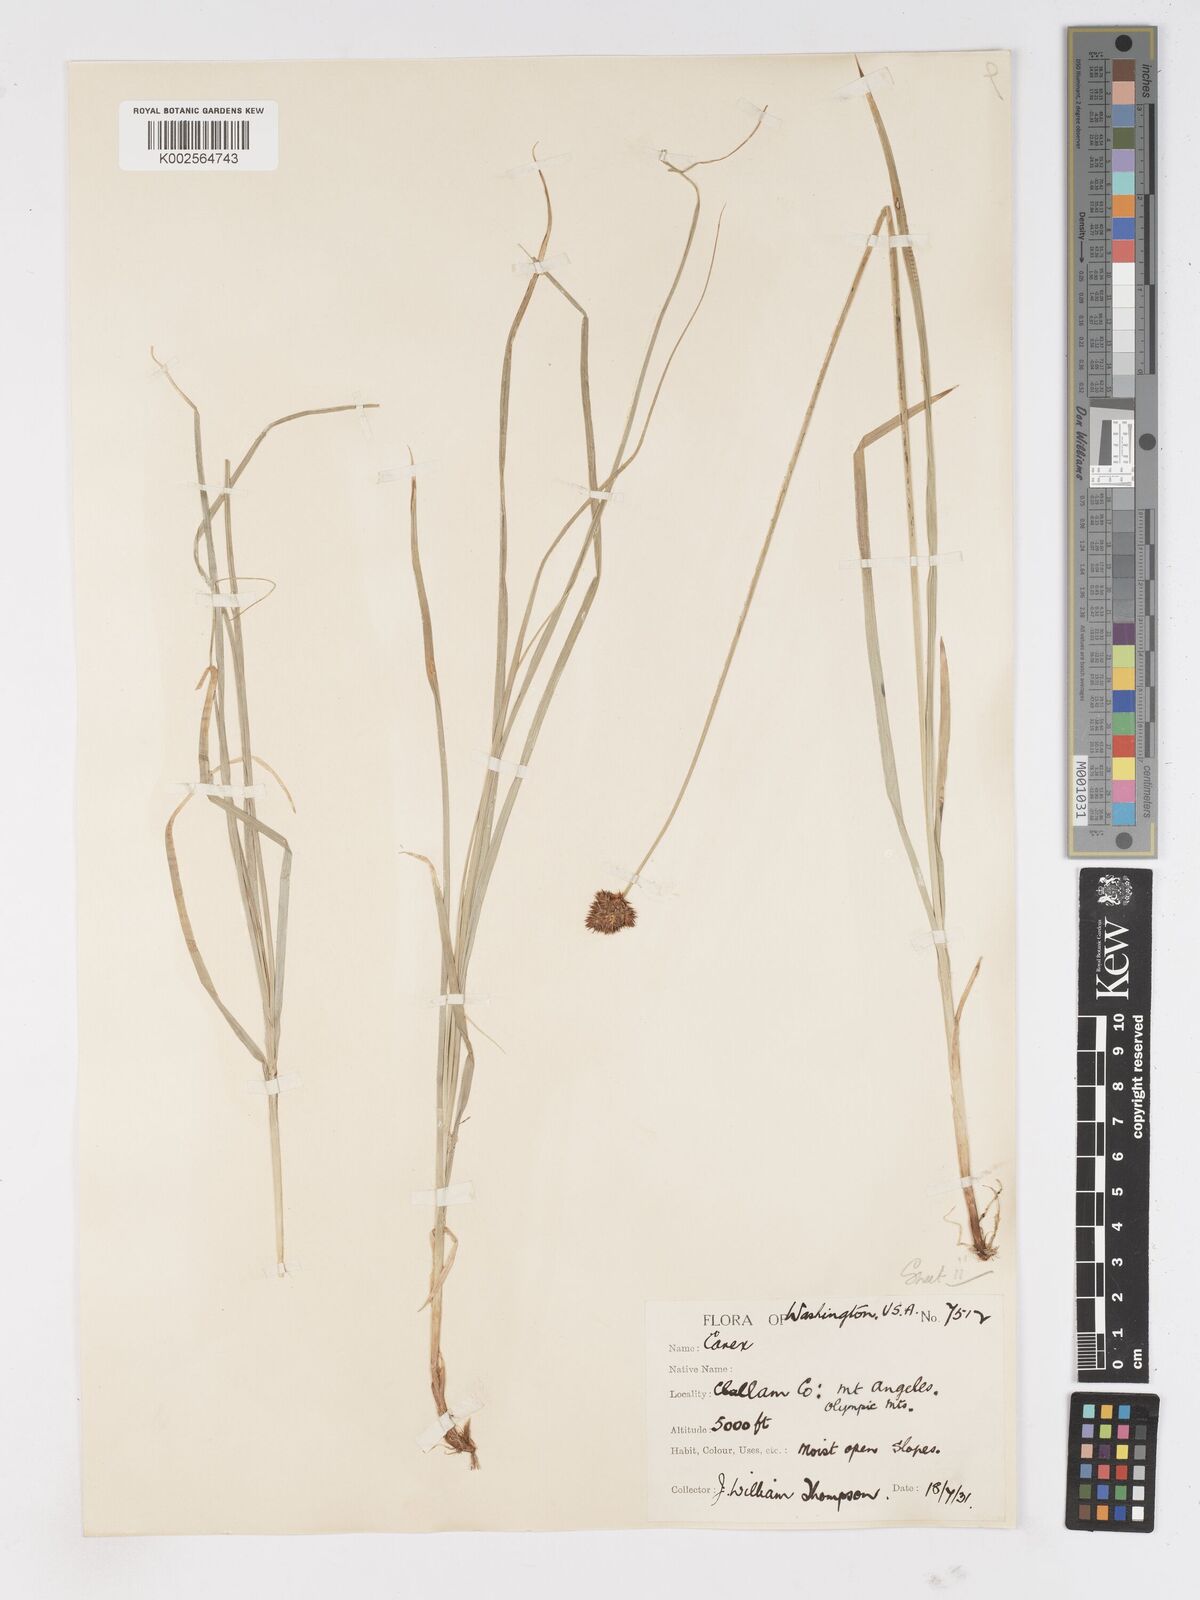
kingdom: Plantae
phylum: Tracheophyta
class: Liliopsida
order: Poales
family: Cyperaceae
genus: Carex
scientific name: Carex
